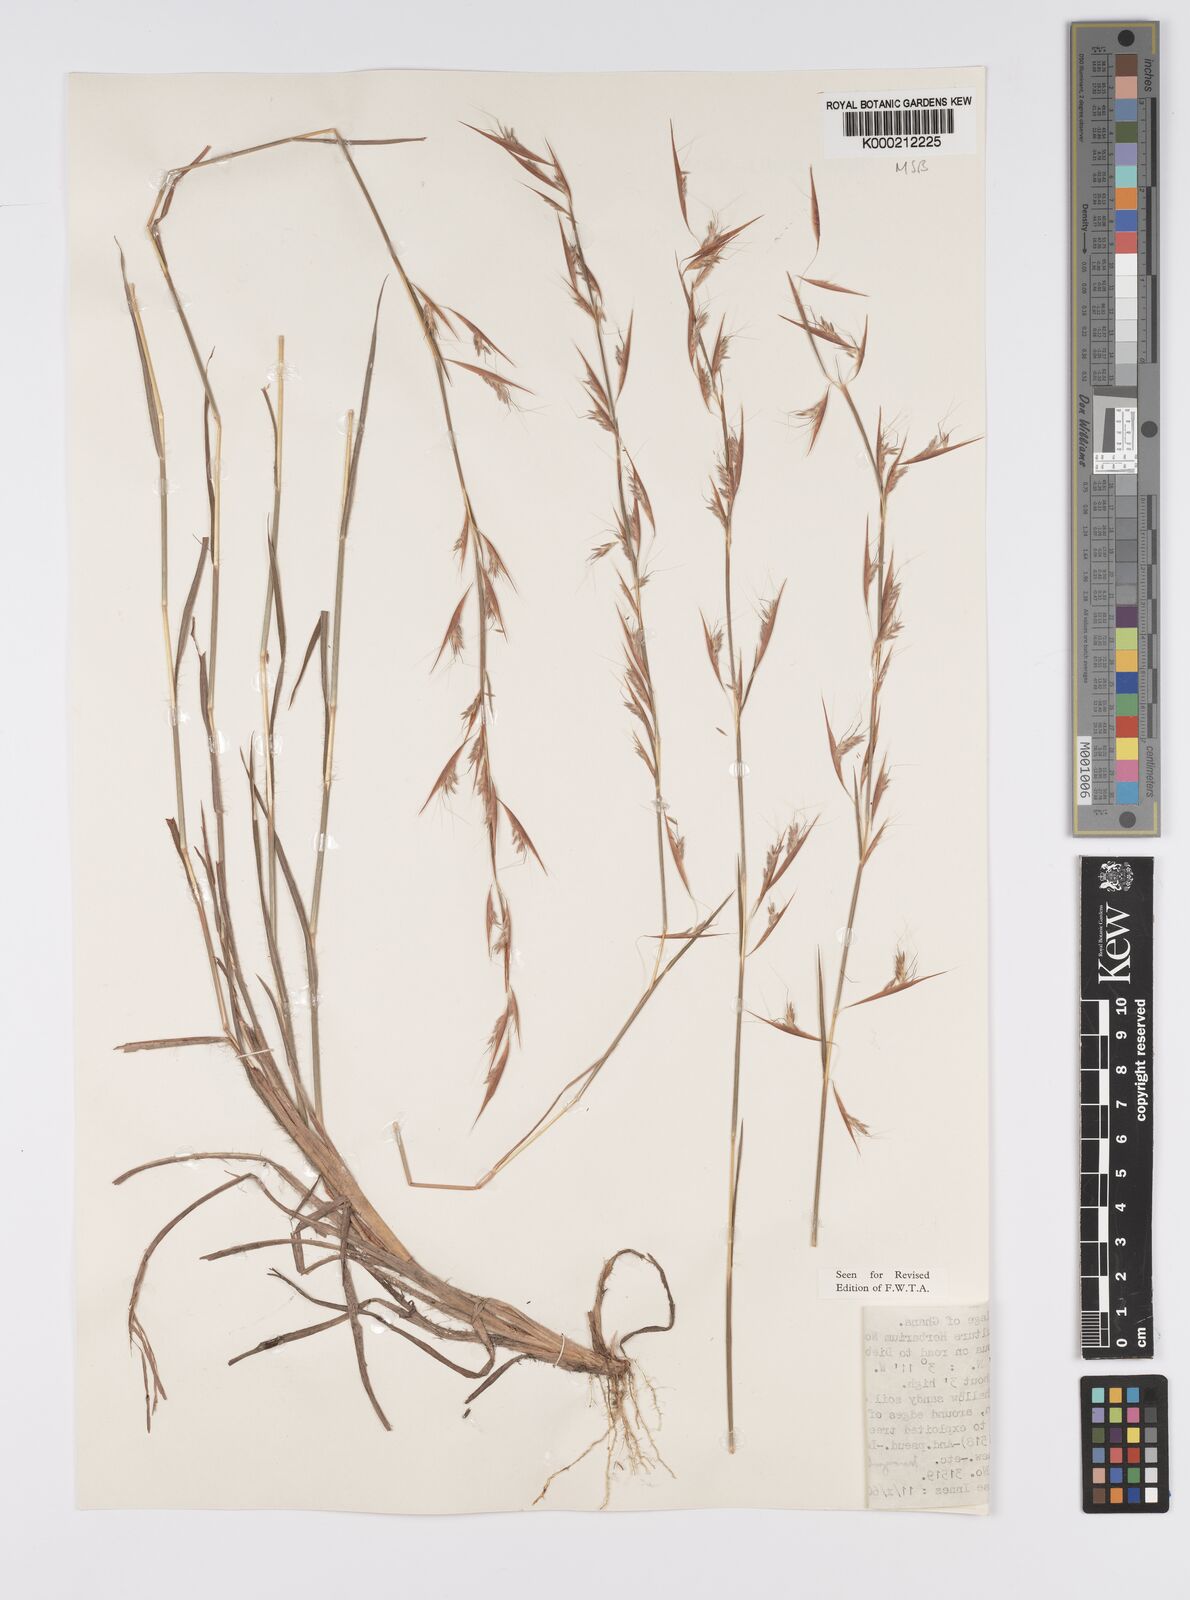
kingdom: Plantae
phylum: Tracheophyta
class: Liliopsida
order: Poales
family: Poaceae
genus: Monocymbium
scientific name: Monocymbium ceresiiforme
